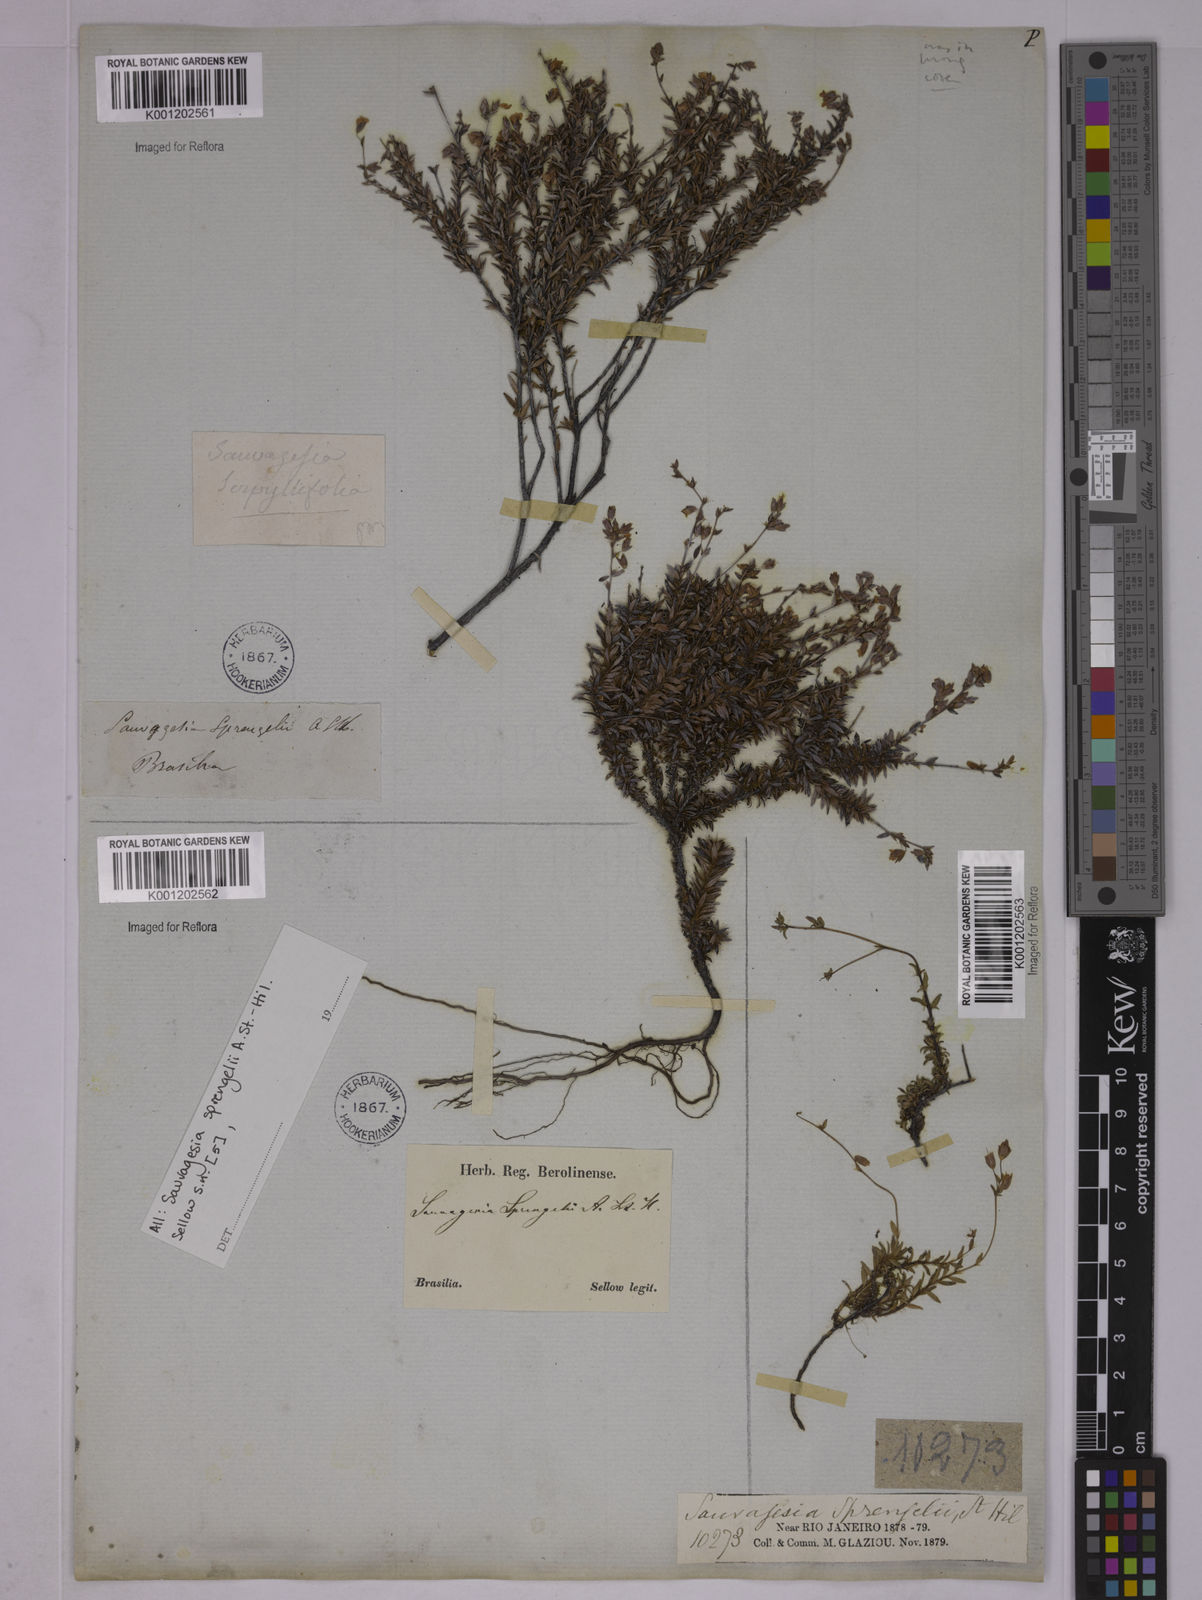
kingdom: Plantae
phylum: Tracheophyta
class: Magnoliopsida
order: Malpighiales
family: Ochnaceae
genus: Sauvagesia
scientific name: Sauvagesia sprengelii
